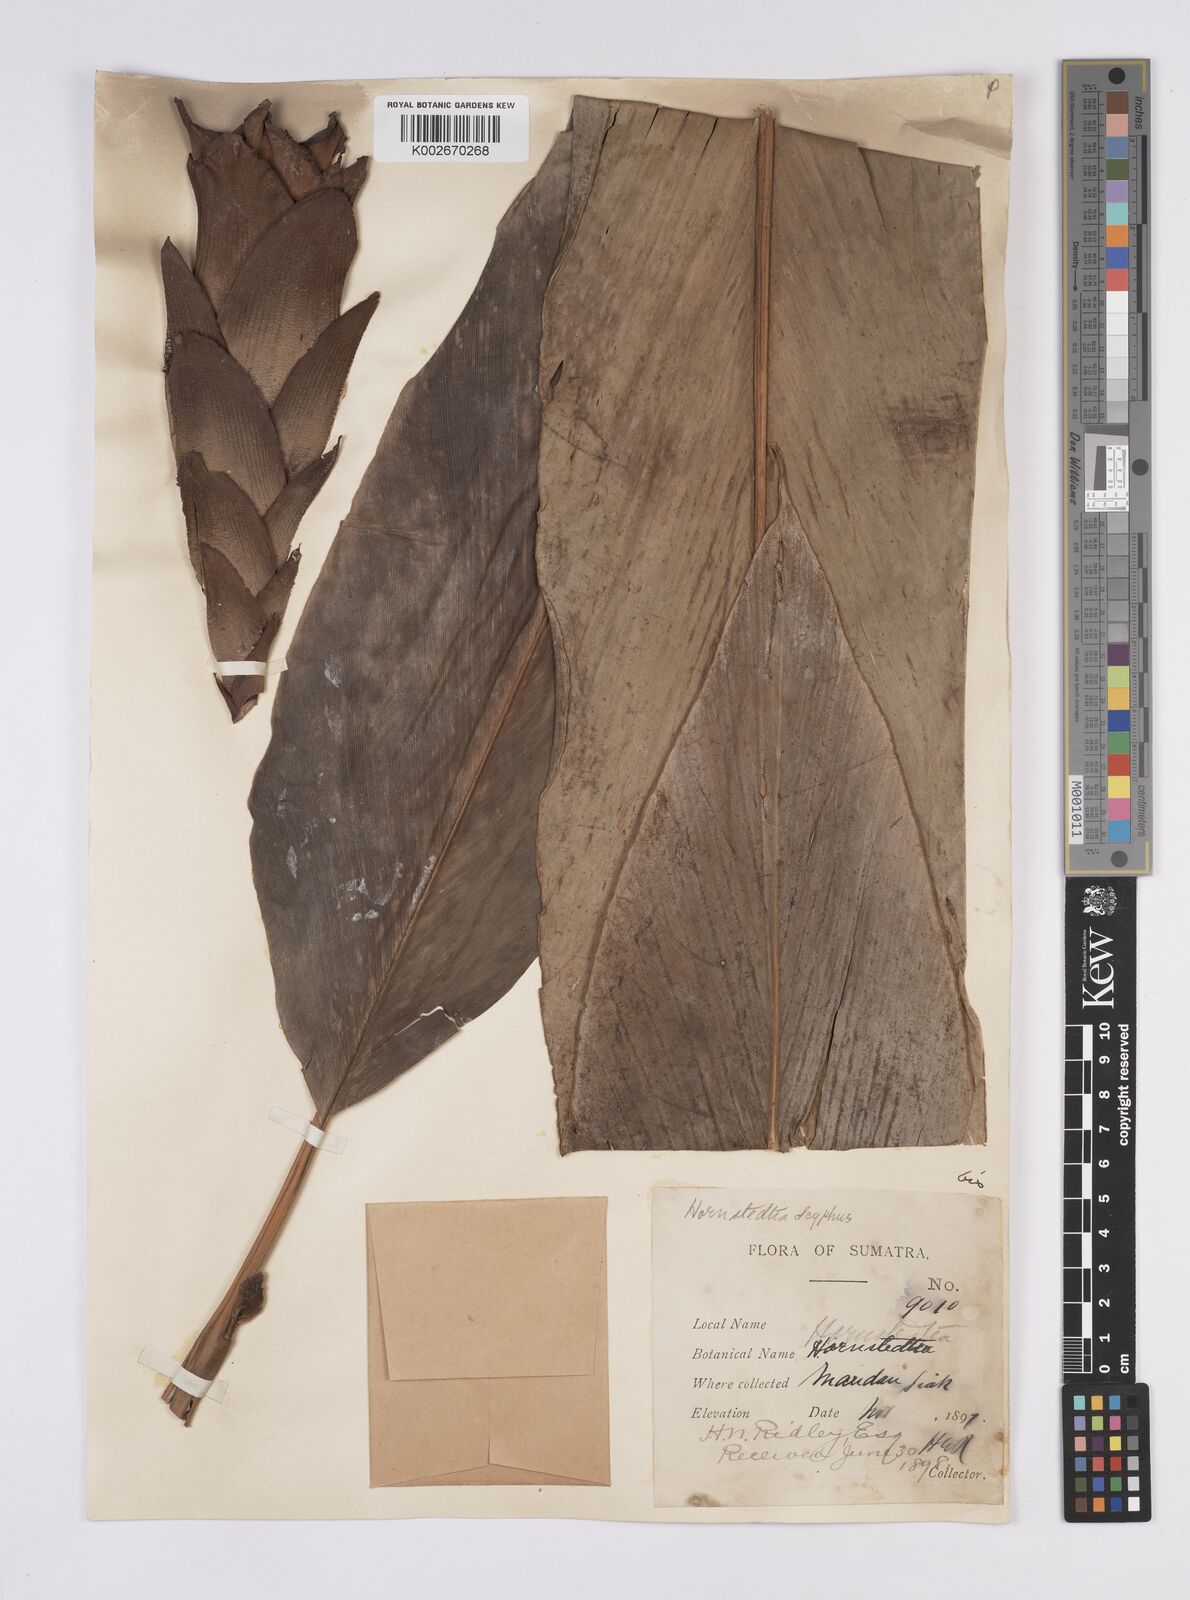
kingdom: Plantae
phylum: Tracheophyta
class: Liliopsida
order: Zingiberales
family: Zingiberaceae
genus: Hornstedtia
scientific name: Hornstedtia
